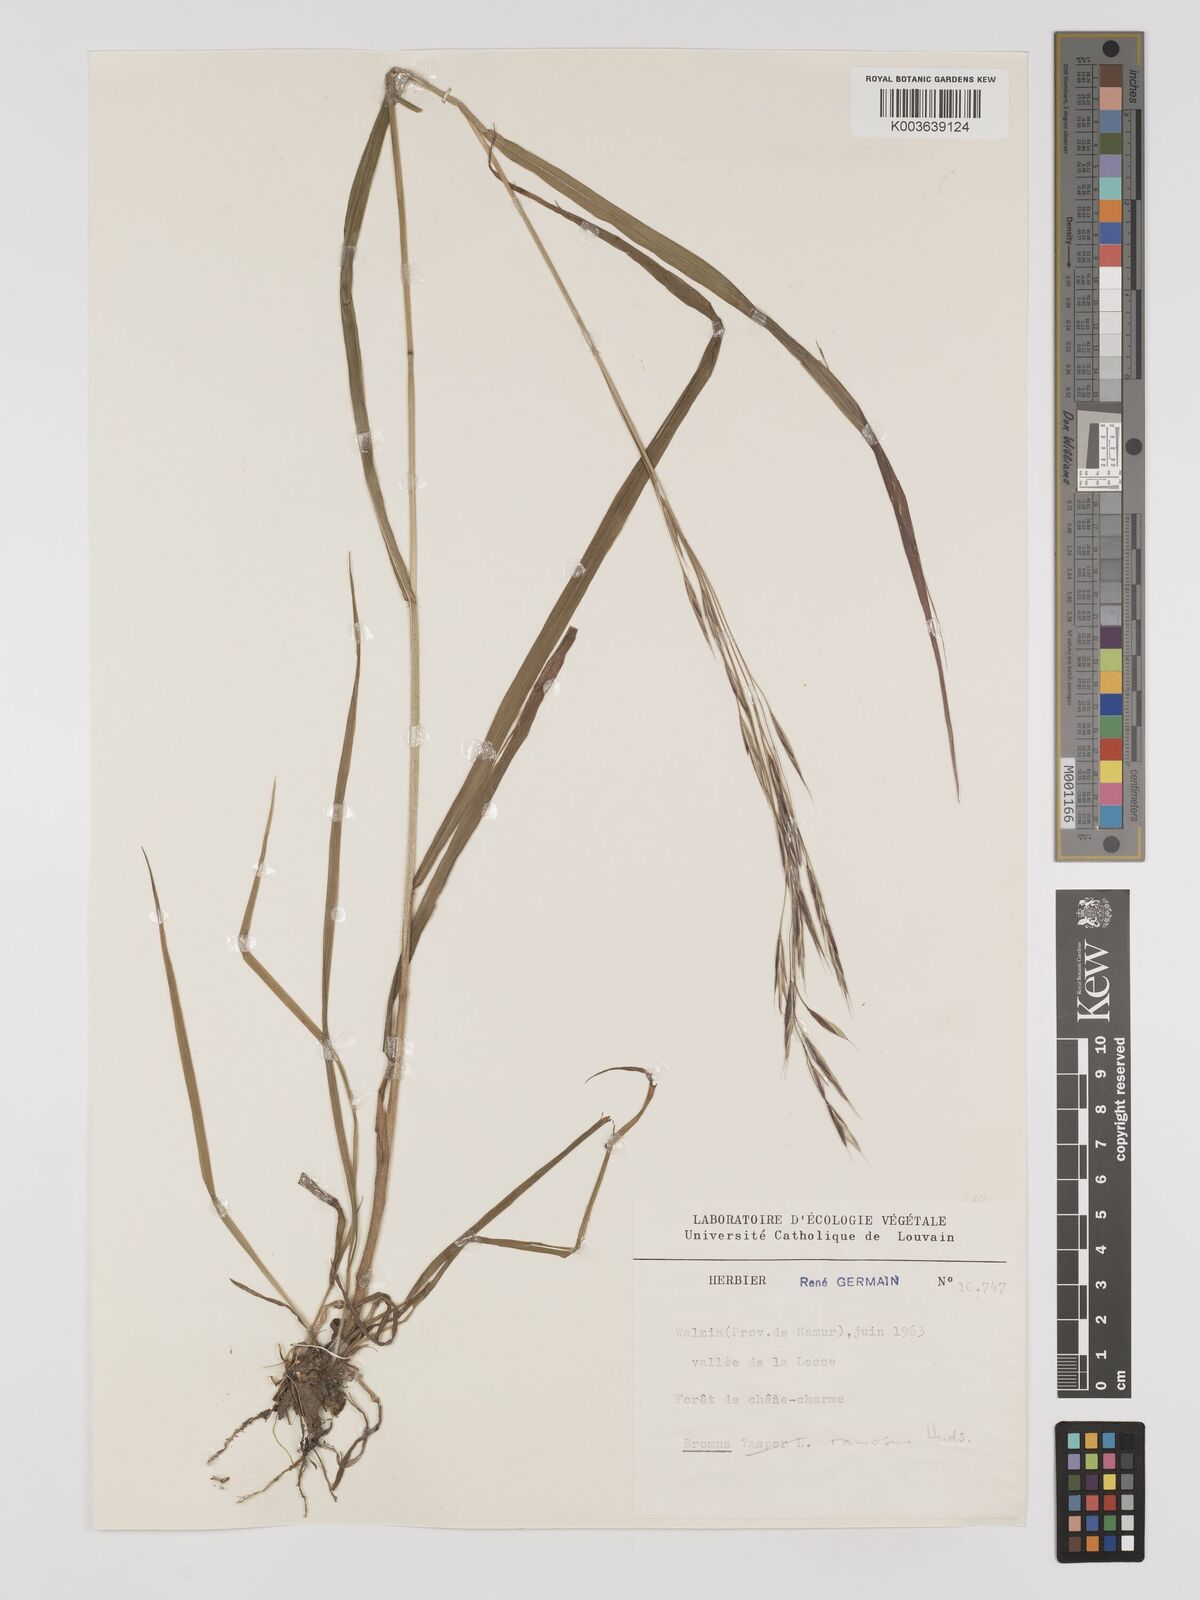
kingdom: Plantae
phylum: Tracheophyta
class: Liliopsida
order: Poales
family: Poaceae
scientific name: Poaceae
